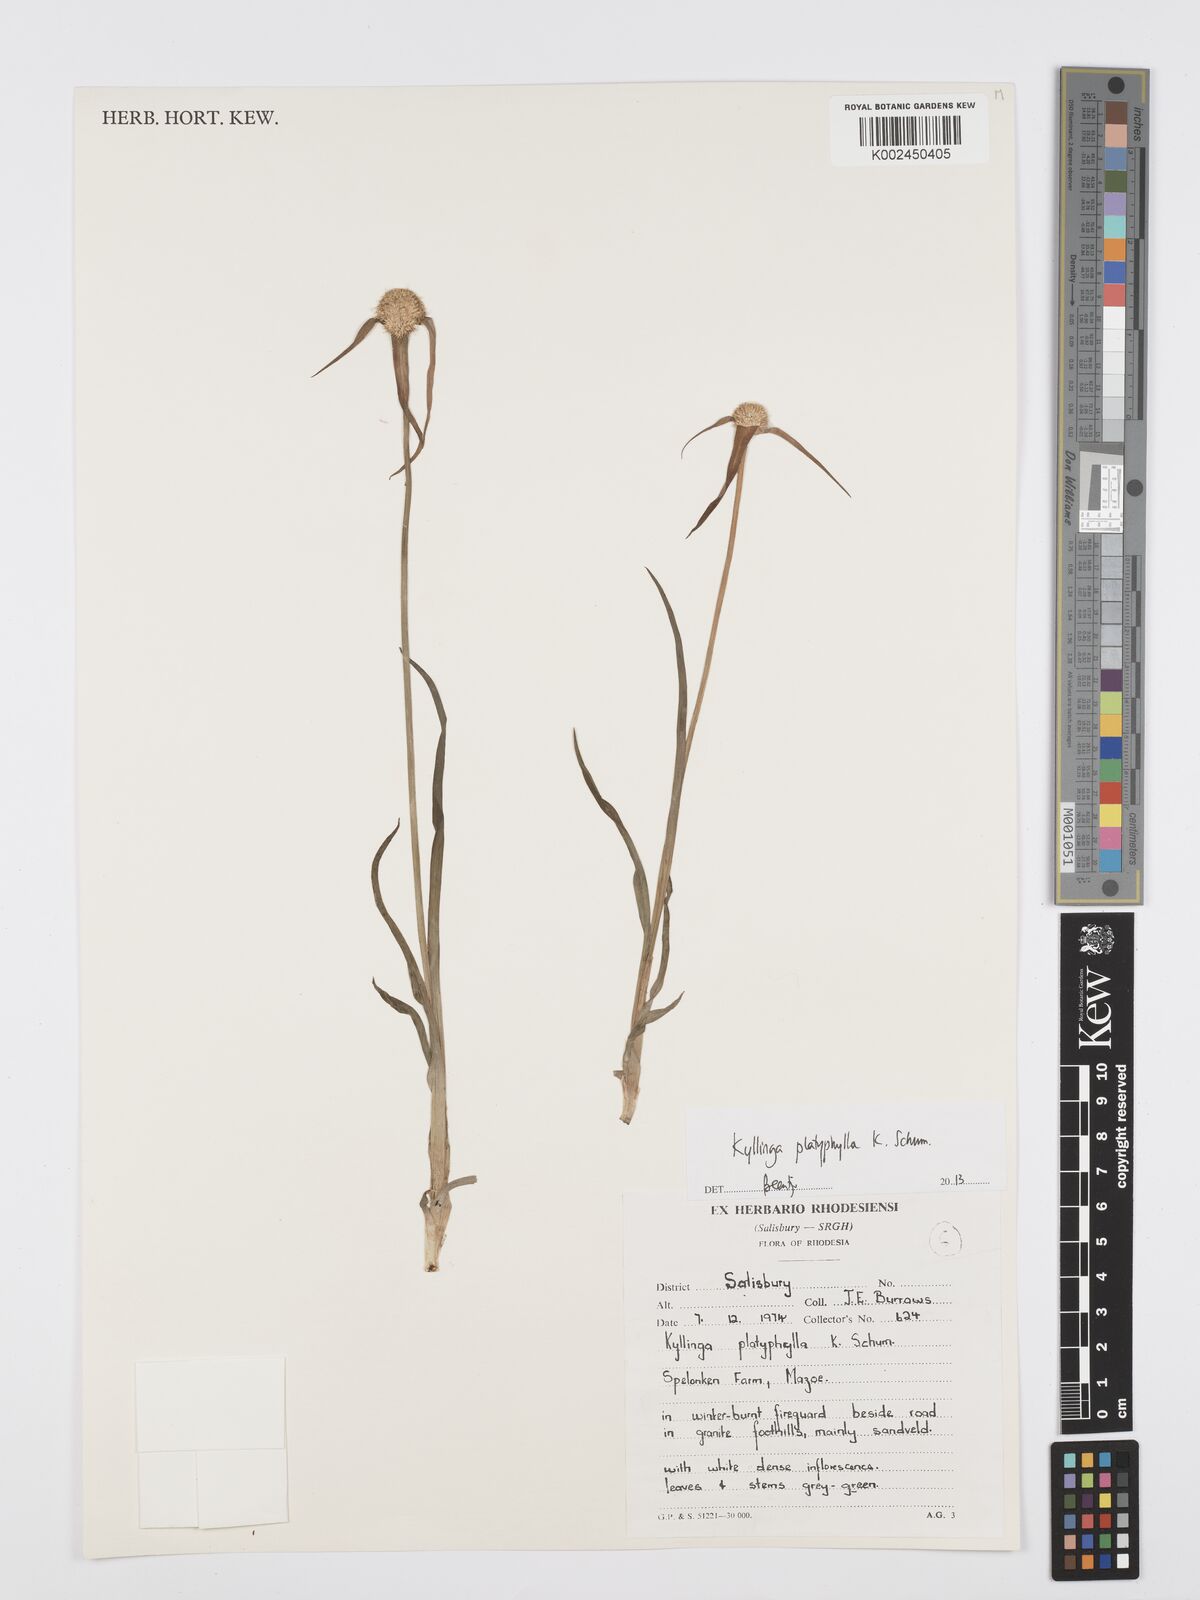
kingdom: Plantae
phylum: Tracheophyta
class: Liliopsida
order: Poales
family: Cyperaceae
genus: Cyperus
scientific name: Cyperus
